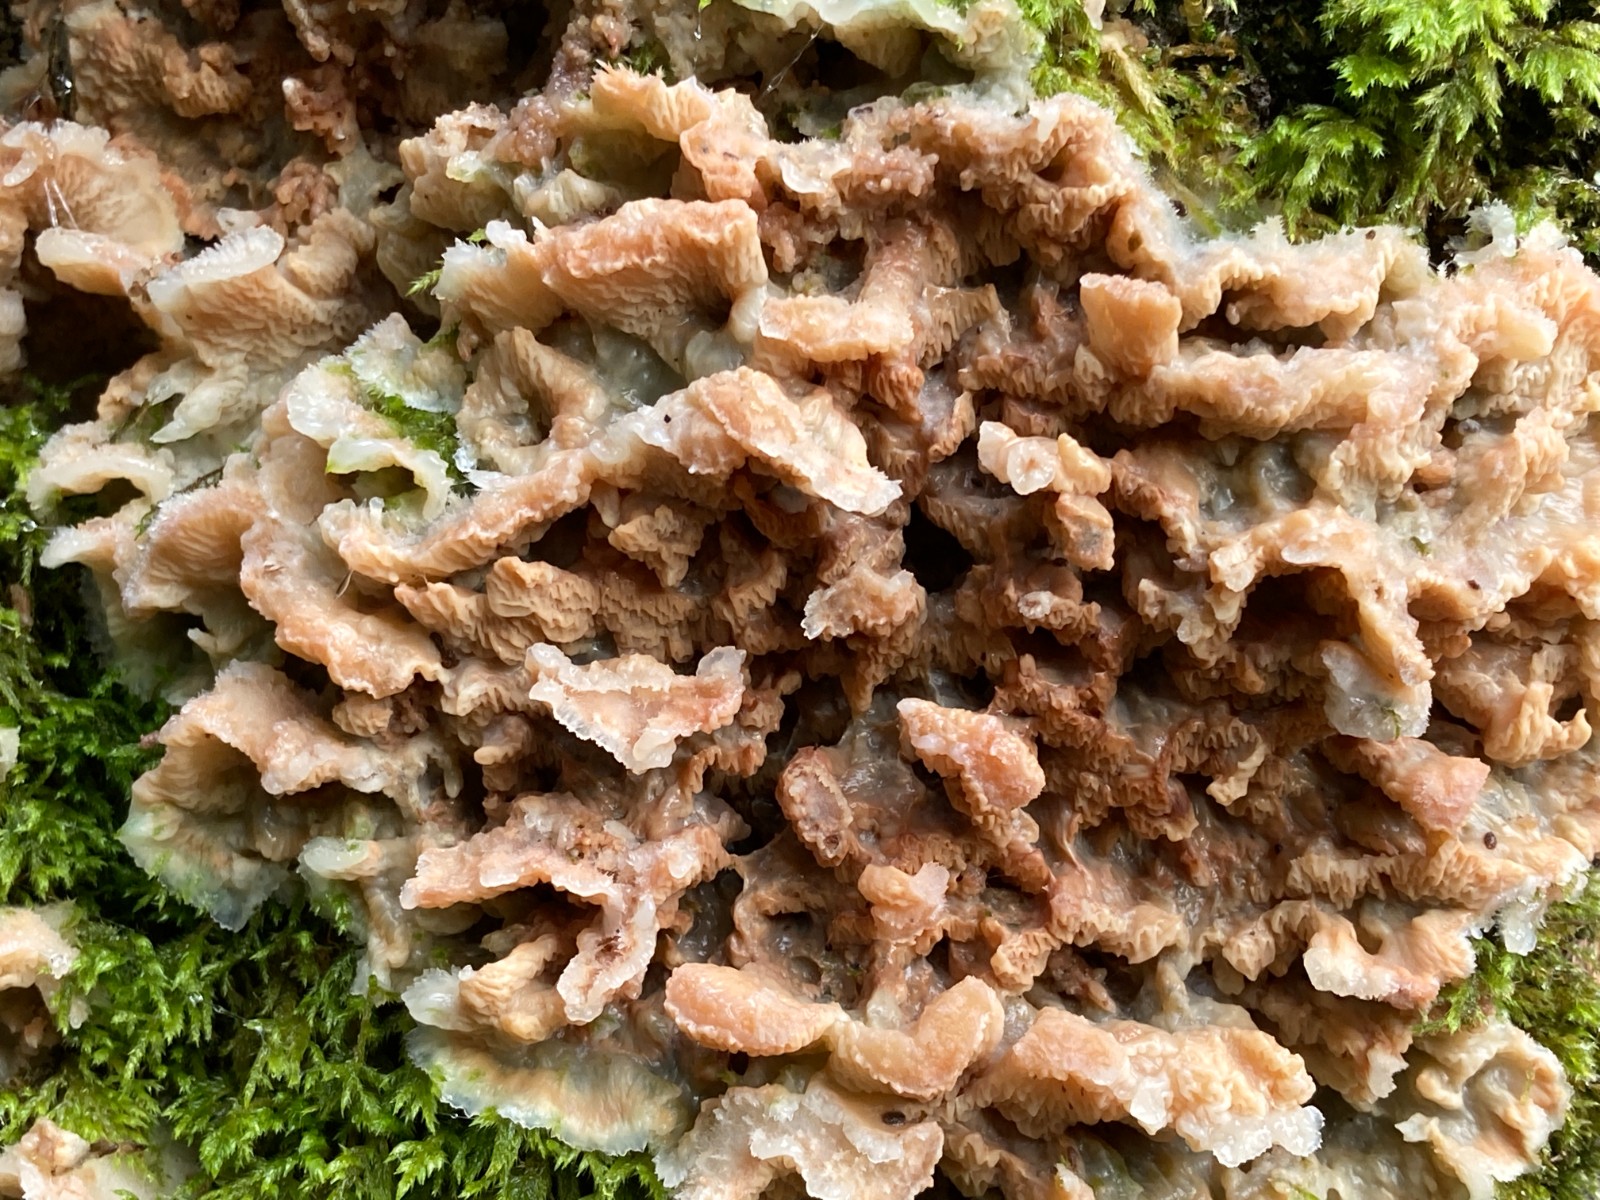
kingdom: Fungi
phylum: Basidiomycota
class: Agaricomycetes
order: Polyporales
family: Meruliaceae
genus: Phlebia
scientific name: Phlebia tremellosa
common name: bævrende åresvamp
